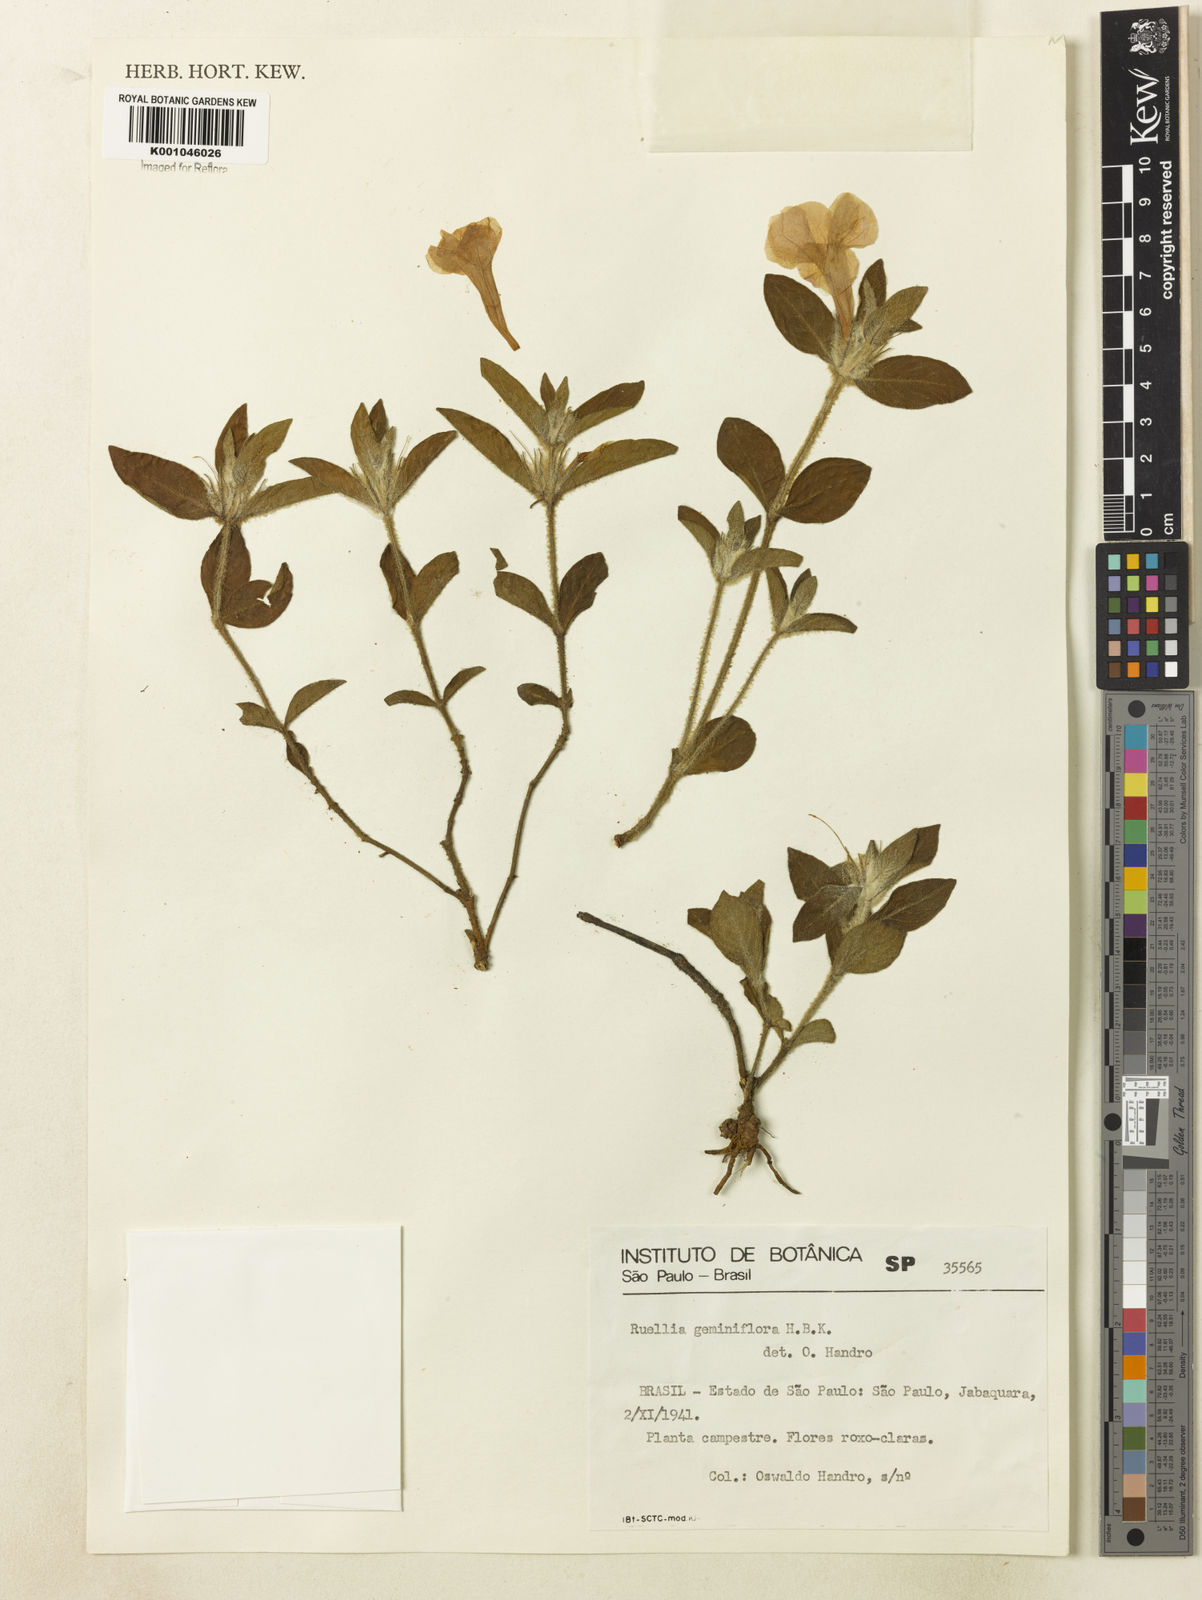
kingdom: Plantae
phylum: Tracheophyta
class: Magnoliopsida
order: Lamiales
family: Acanthaceae
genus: Ruellia
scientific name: Ruellia geminiflora
